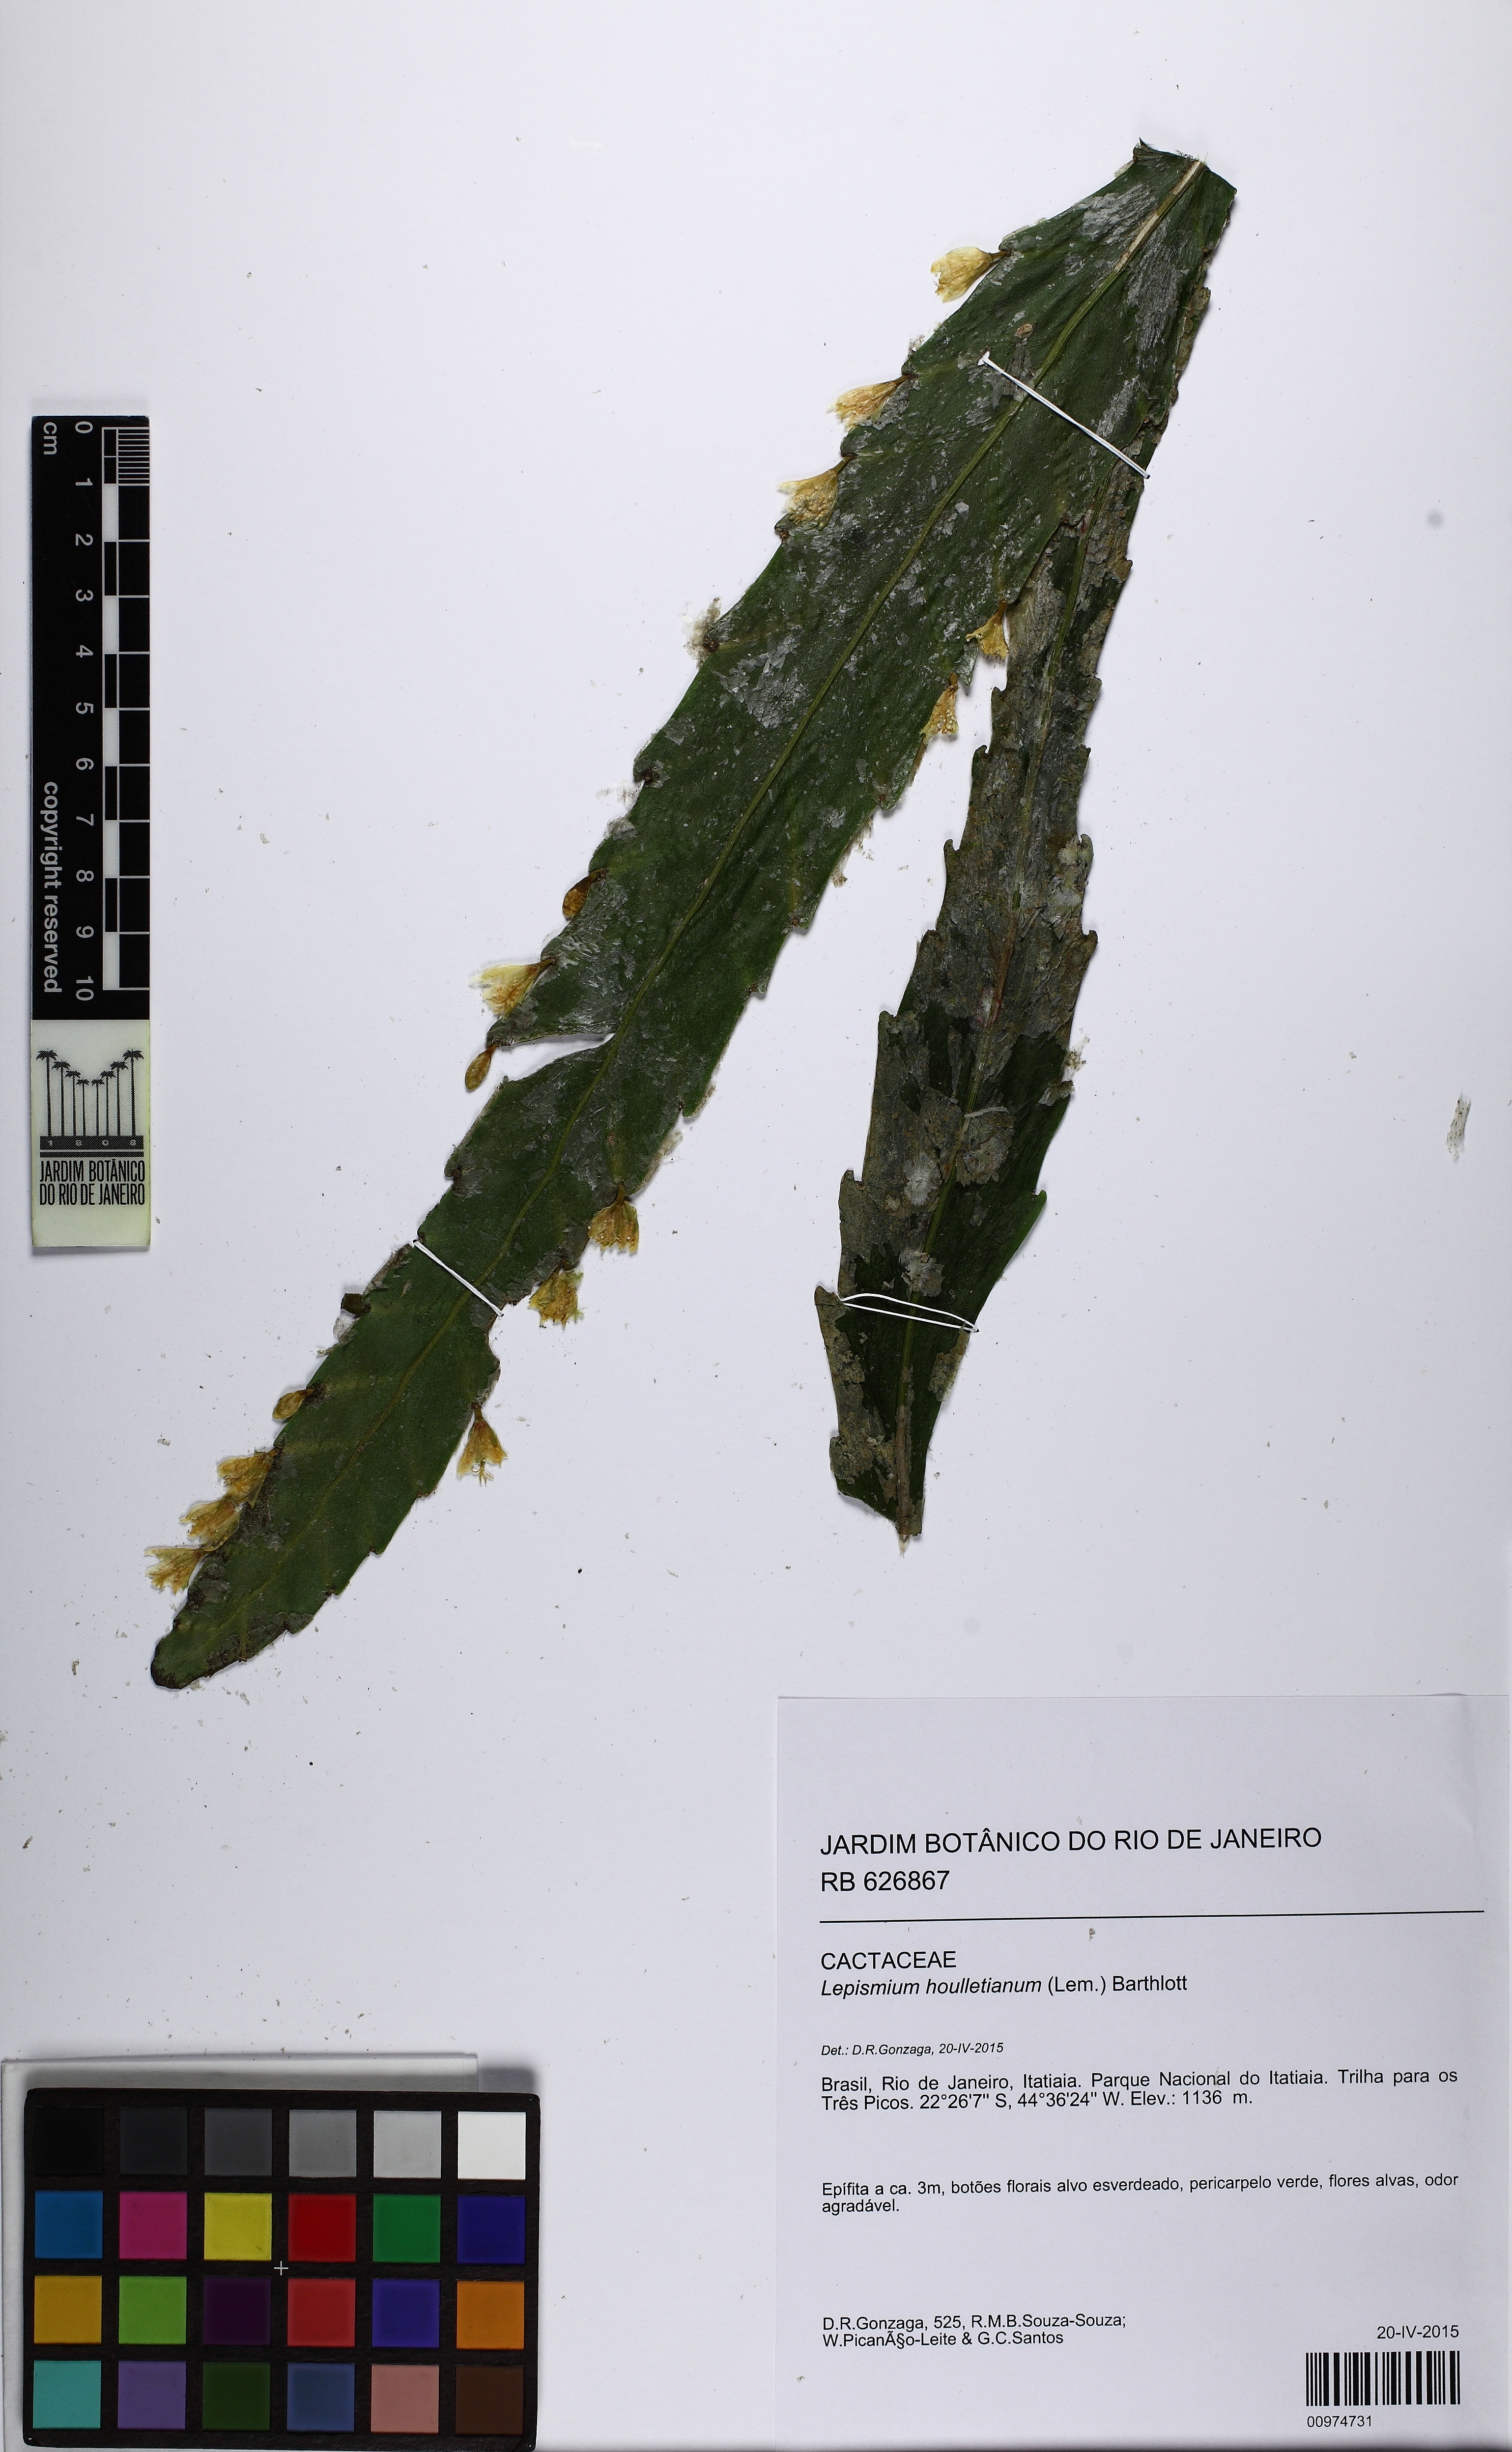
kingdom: Plantae
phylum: Tracheophyta
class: Magnoliopsida
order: Caryophyllales
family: Cactaceae
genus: Lepismium
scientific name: Lepismium houlletianum
